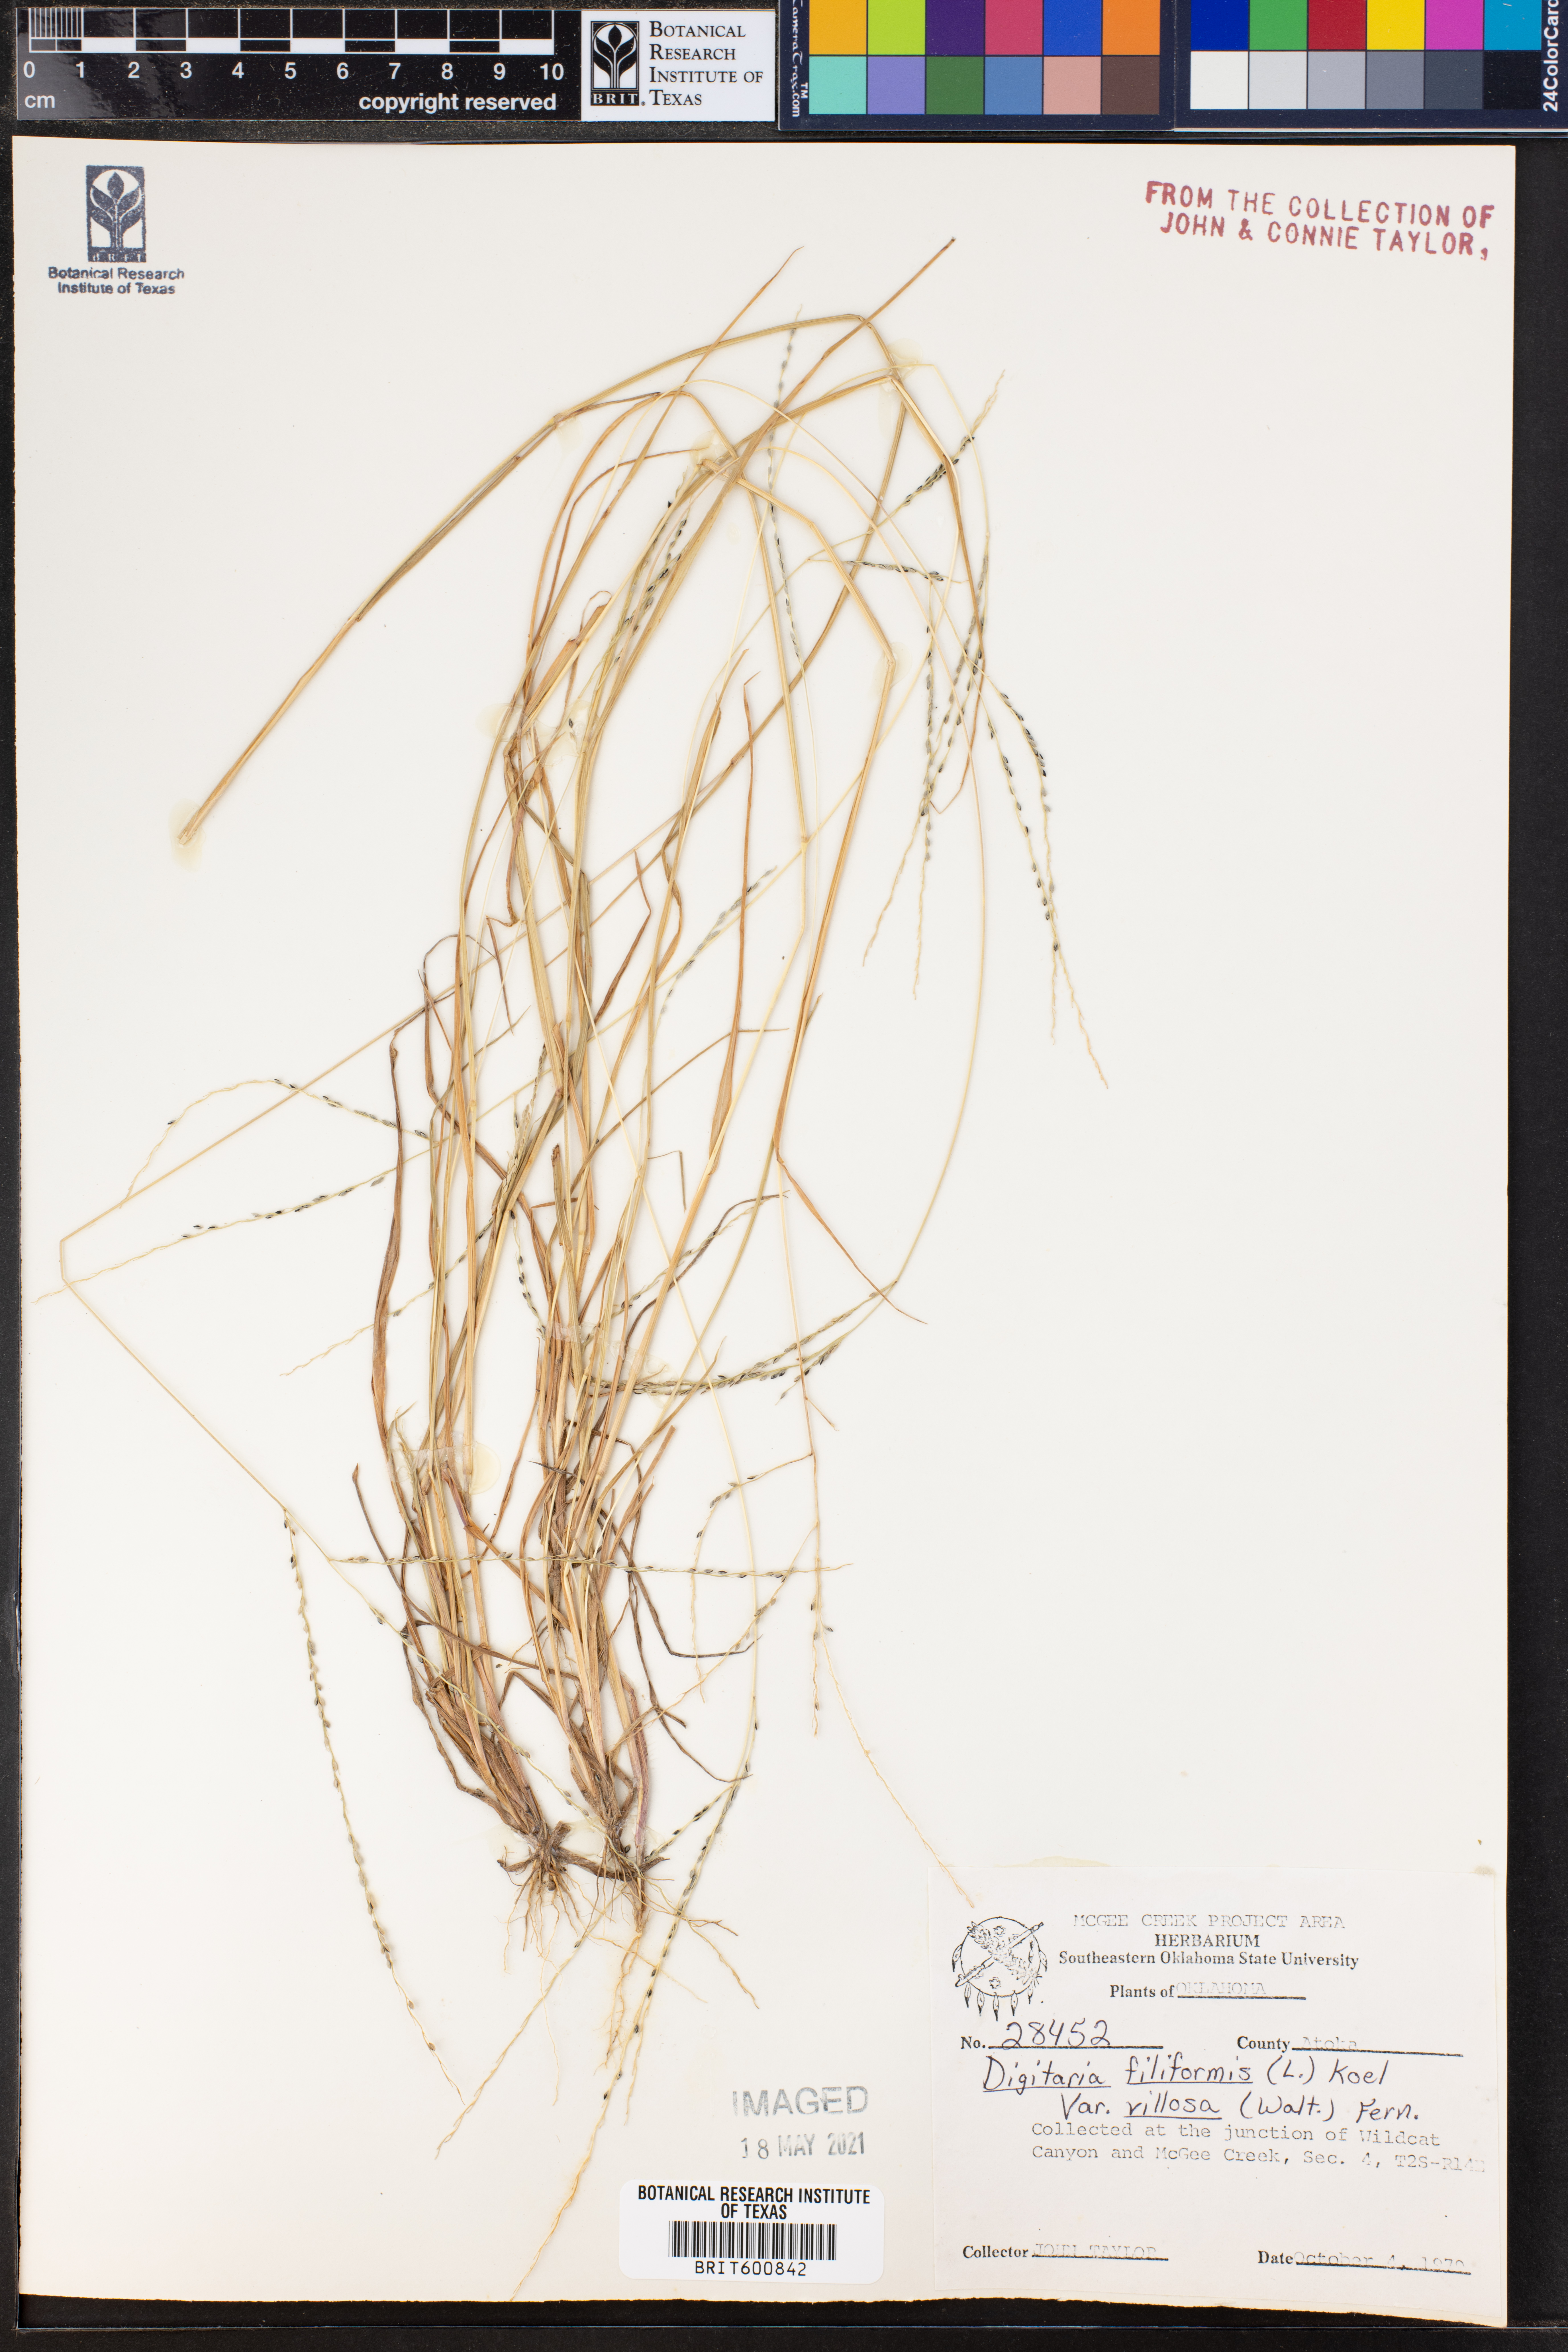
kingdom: Plantae
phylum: Tracheophyta
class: Liliopsida
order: Poales
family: Poaceae
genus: Digitaria
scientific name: Digitaria villosa
